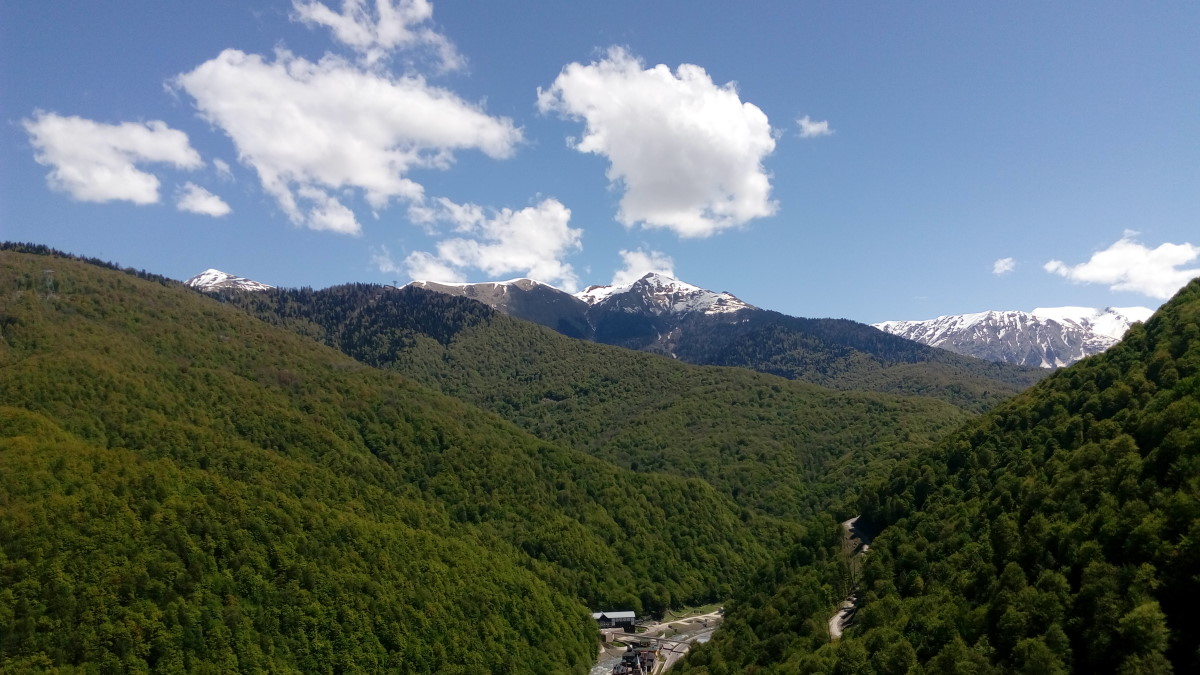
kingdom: Plantae
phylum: Tracheophyta
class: Pinopsida
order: Pinales
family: Pinaceae
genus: Pinus
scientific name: Pinus
